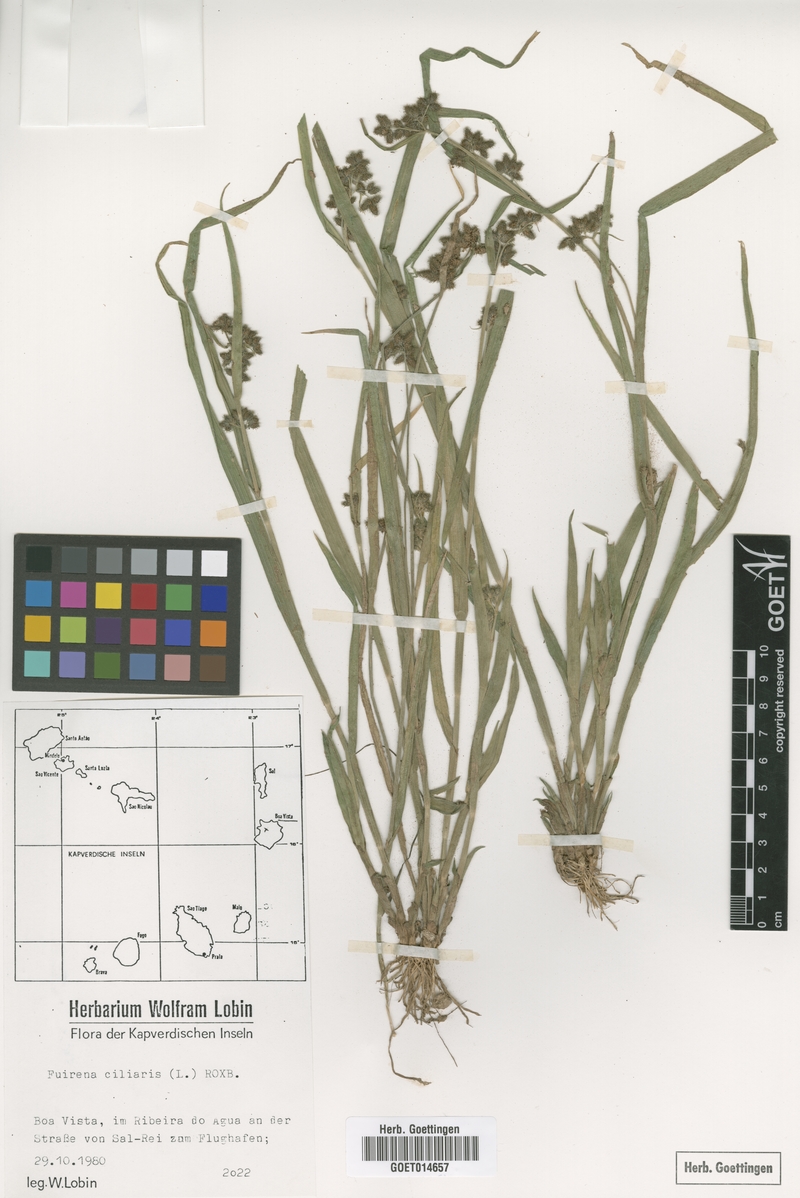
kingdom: Plantae
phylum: Tracheophyta
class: Liliopsida
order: Poales
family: Cyperaceae
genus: Fuirena
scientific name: Fuirena ciliaris
